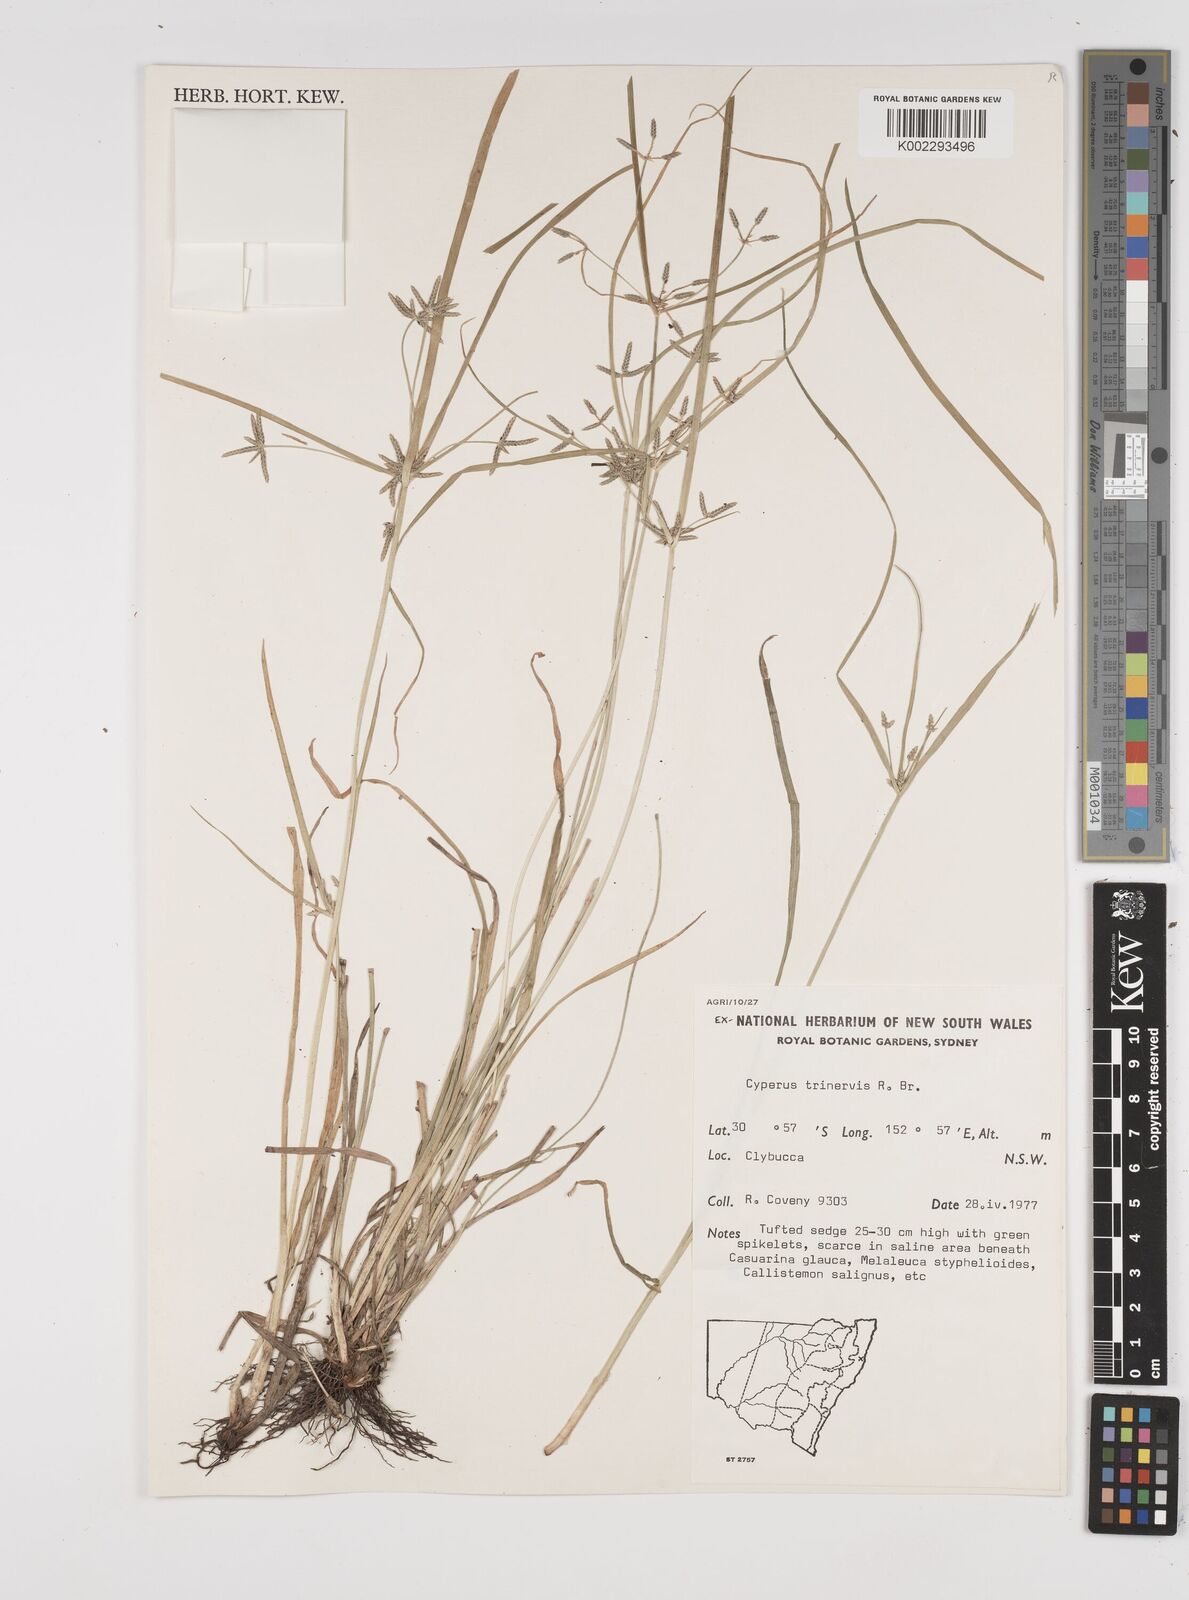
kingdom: Plantae
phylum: Tracheophyta
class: Liliopsida
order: Poales
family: Cyperaceae
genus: Cyperus
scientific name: Cyperus trinervis
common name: Australian flatsedge
